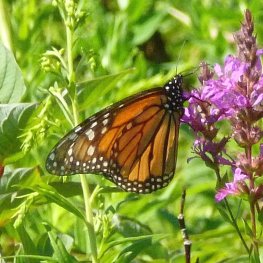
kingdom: Animalia
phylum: Arthropoda
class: Insecta
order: Lepidoptera
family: Nymphalidae
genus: Danaus
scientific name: Danaus plexippus
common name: Monarch
